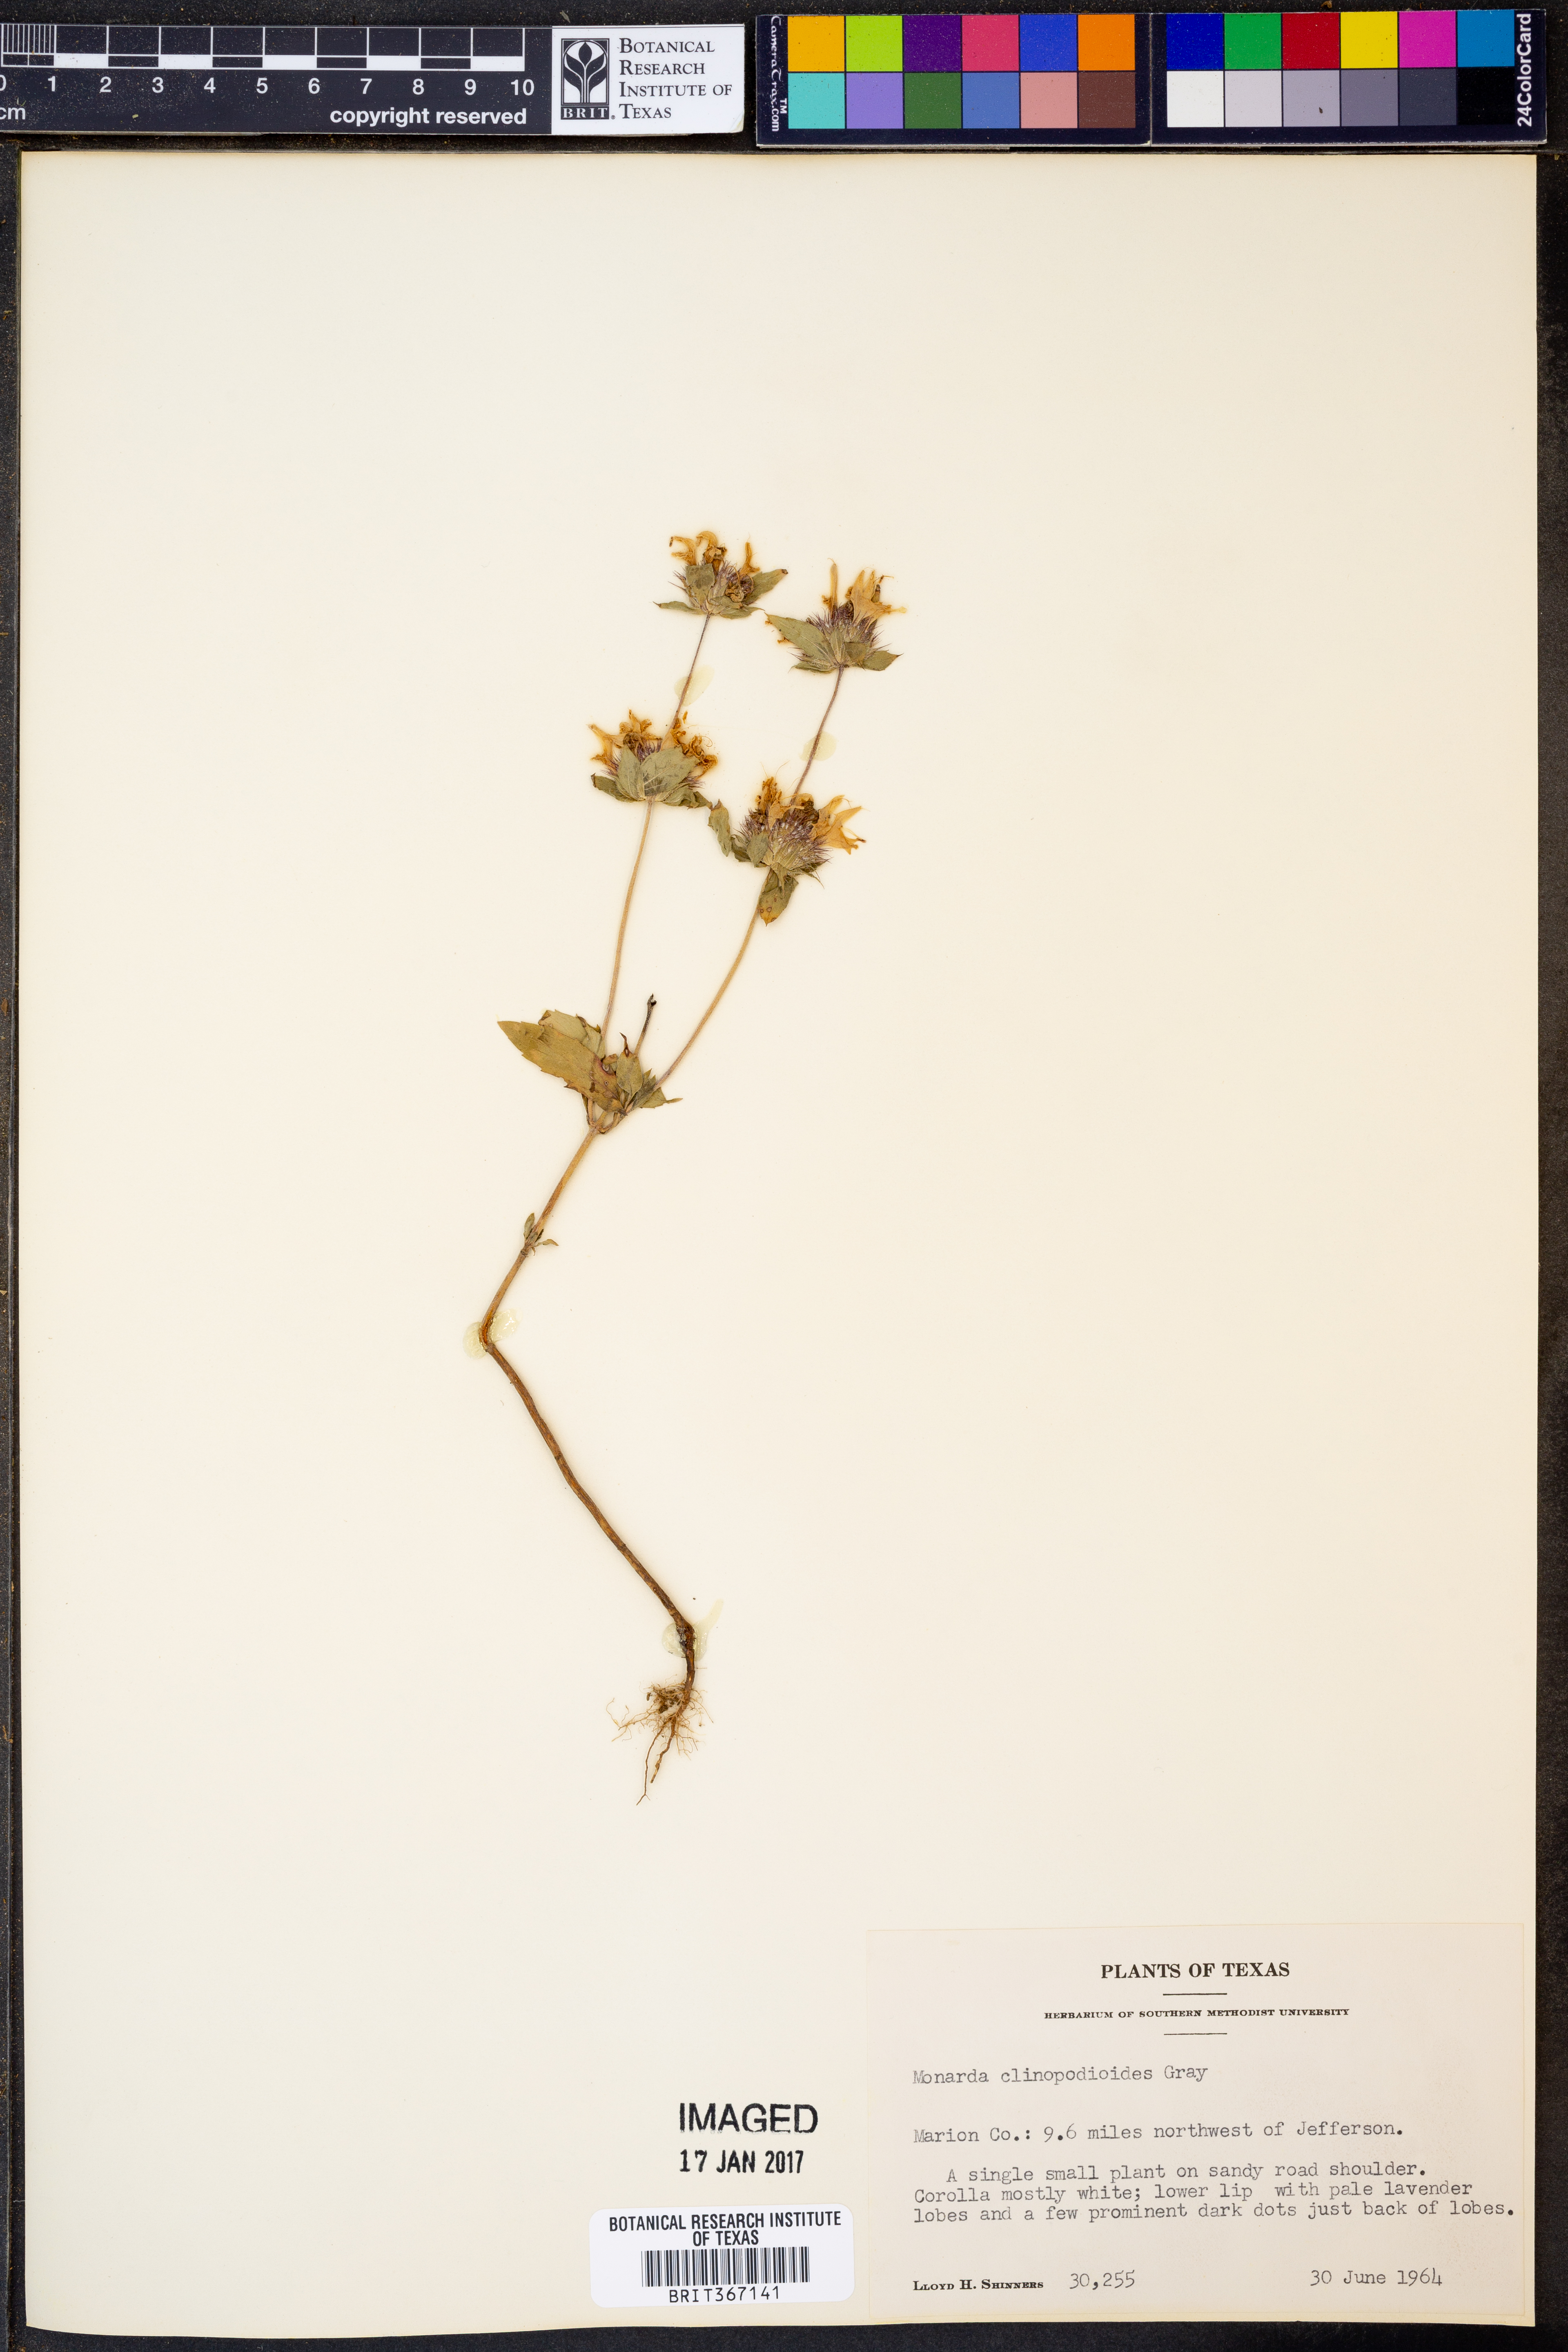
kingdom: Plantae
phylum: Tracheophyta
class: Magnoliopsida
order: Lamiales
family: Lamiaceae
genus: Monarda
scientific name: Monarda clinopodioides
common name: Basil beebalm
